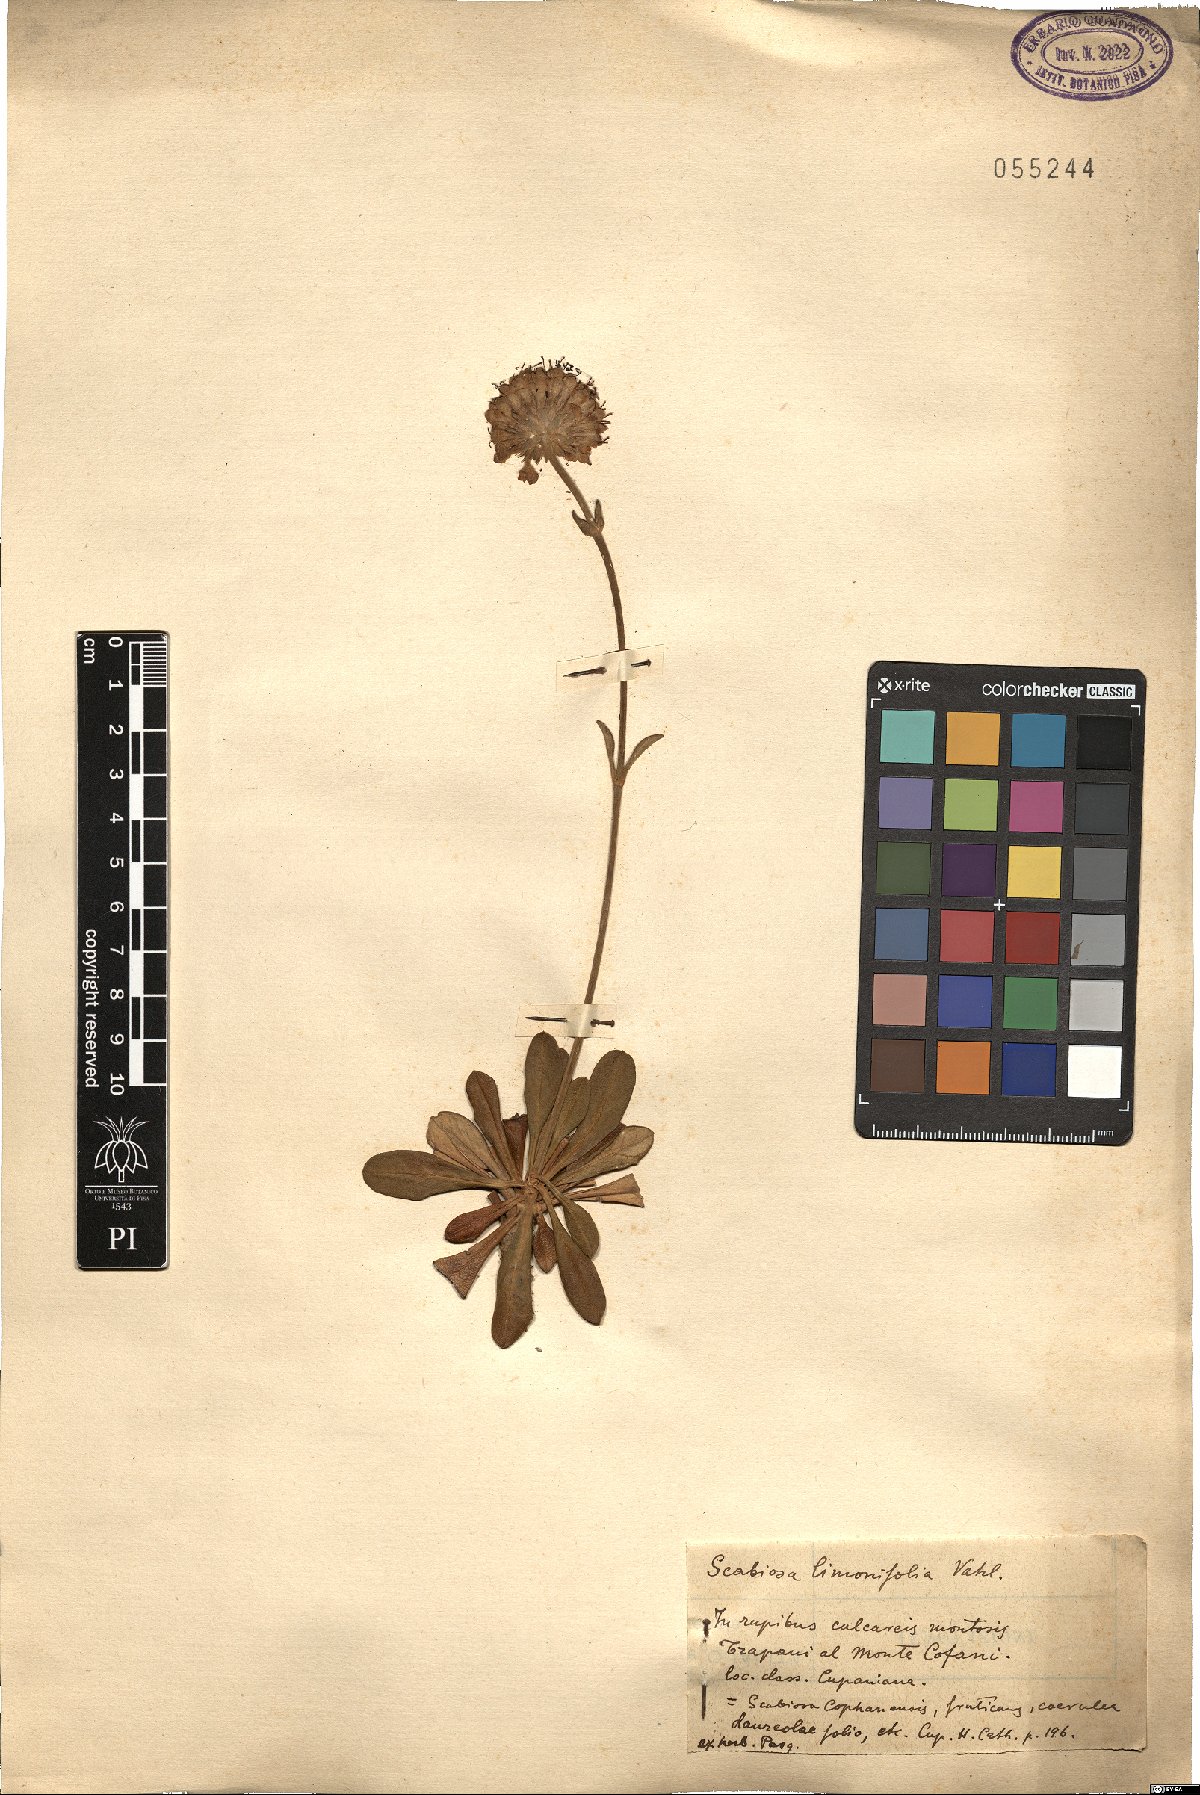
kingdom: Plantae
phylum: Tracheophyta
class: Magnoliopsida
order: Dipsacales
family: Caprifoliaceae
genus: Pseudoscabiosa
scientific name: Pseudoscabiosa limonifolia
